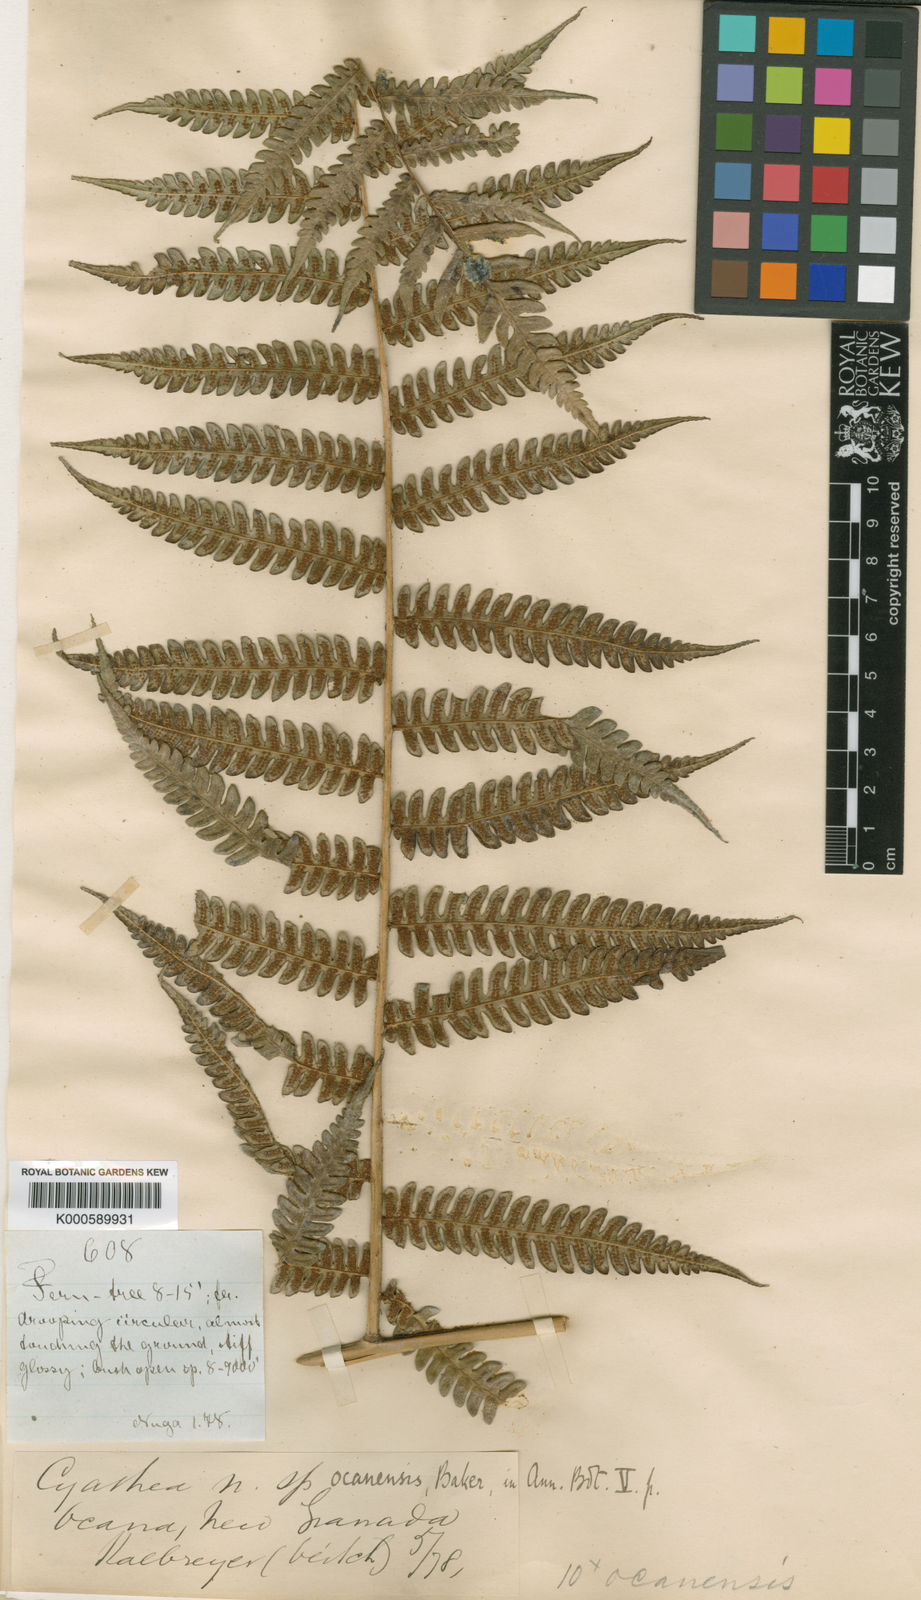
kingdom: Plantae
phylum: Tracheophyta
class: Polypodiopsida
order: Cyatheales
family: Cyatheaceae
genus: Cyathea
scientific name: Cyathea caracasana
